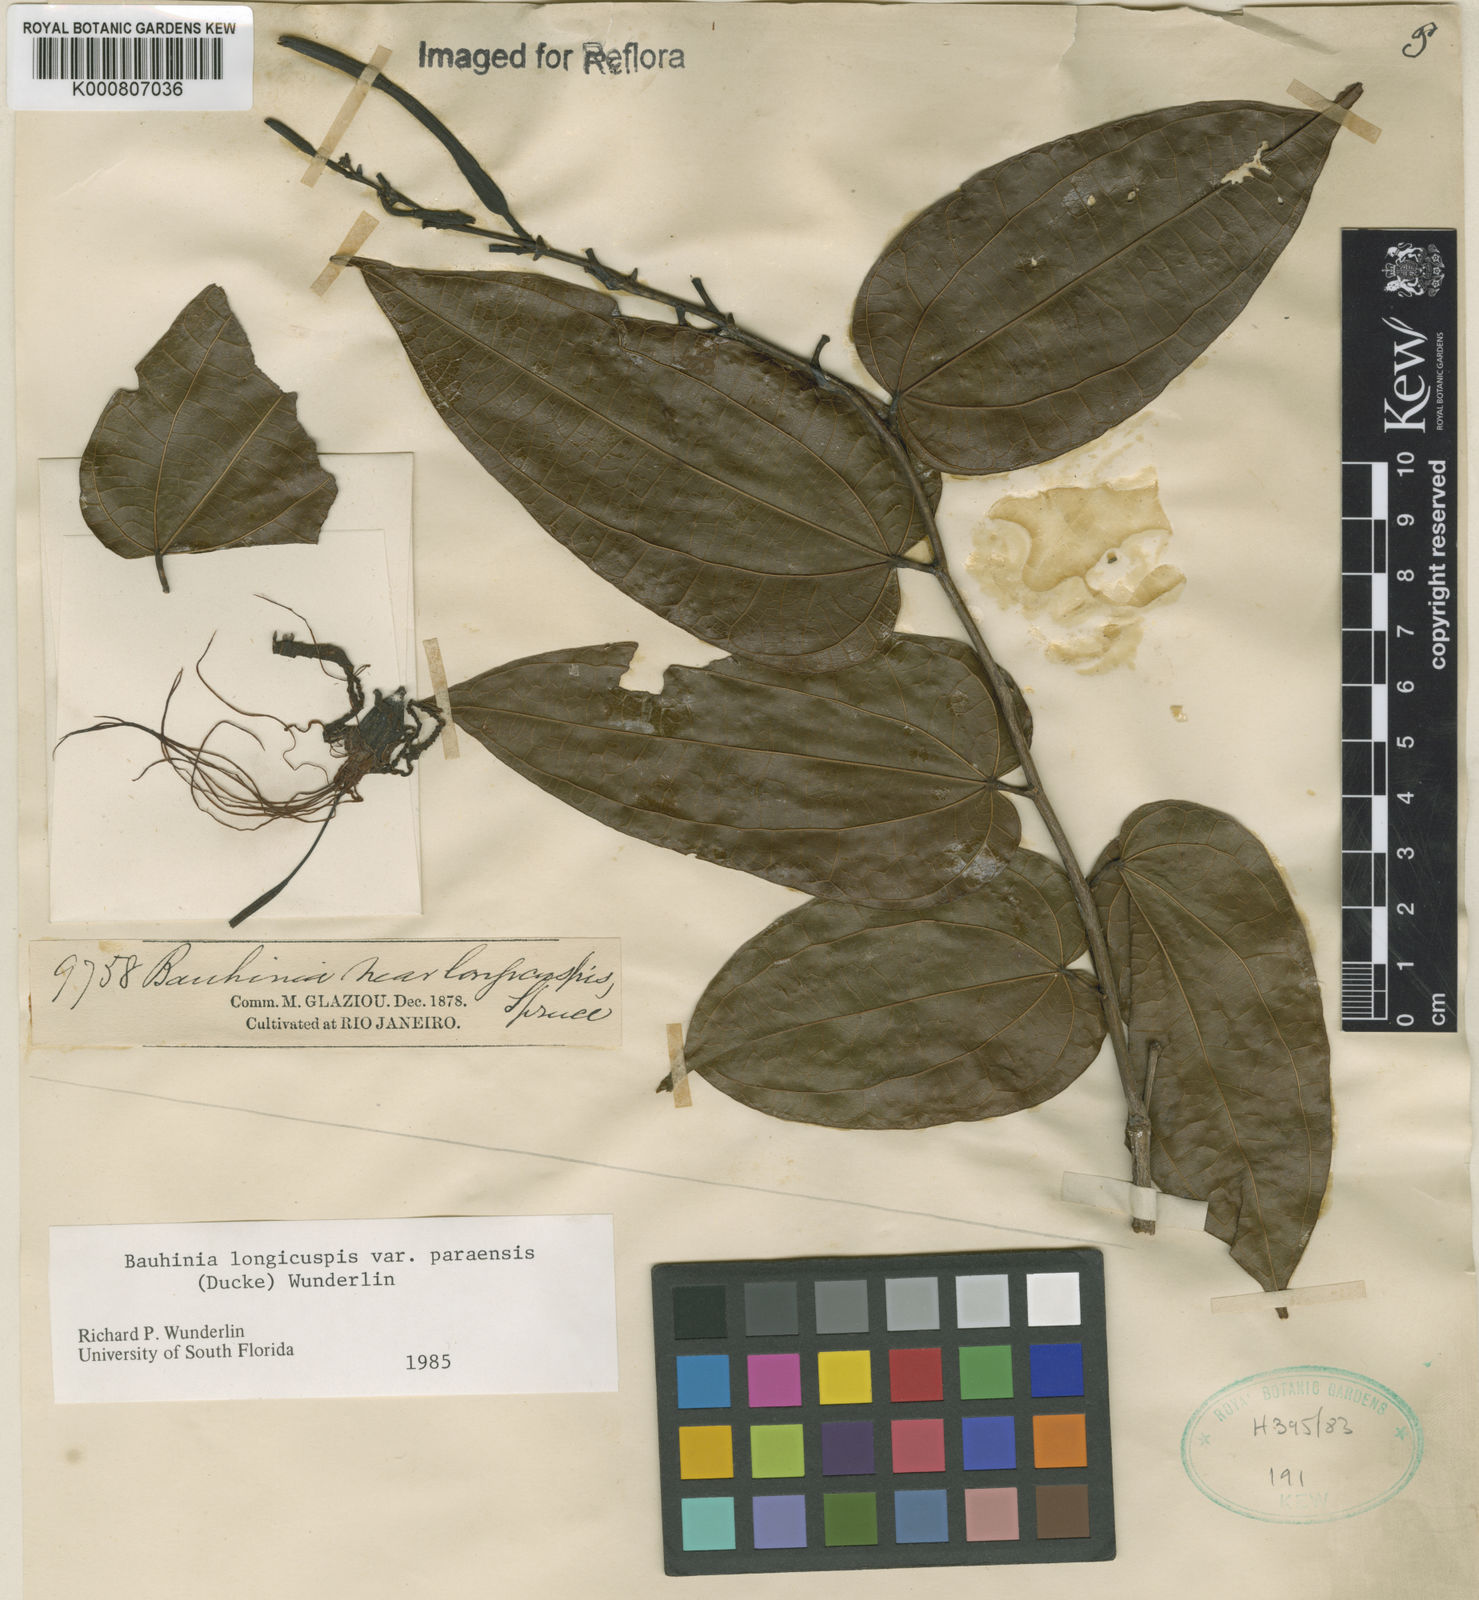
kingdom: Plantae
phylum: Tracheophyta
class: Magnoliopsida
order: Fabales
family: Fabaceae
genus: Bauhinia
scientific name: Bauhinia longicuspis
